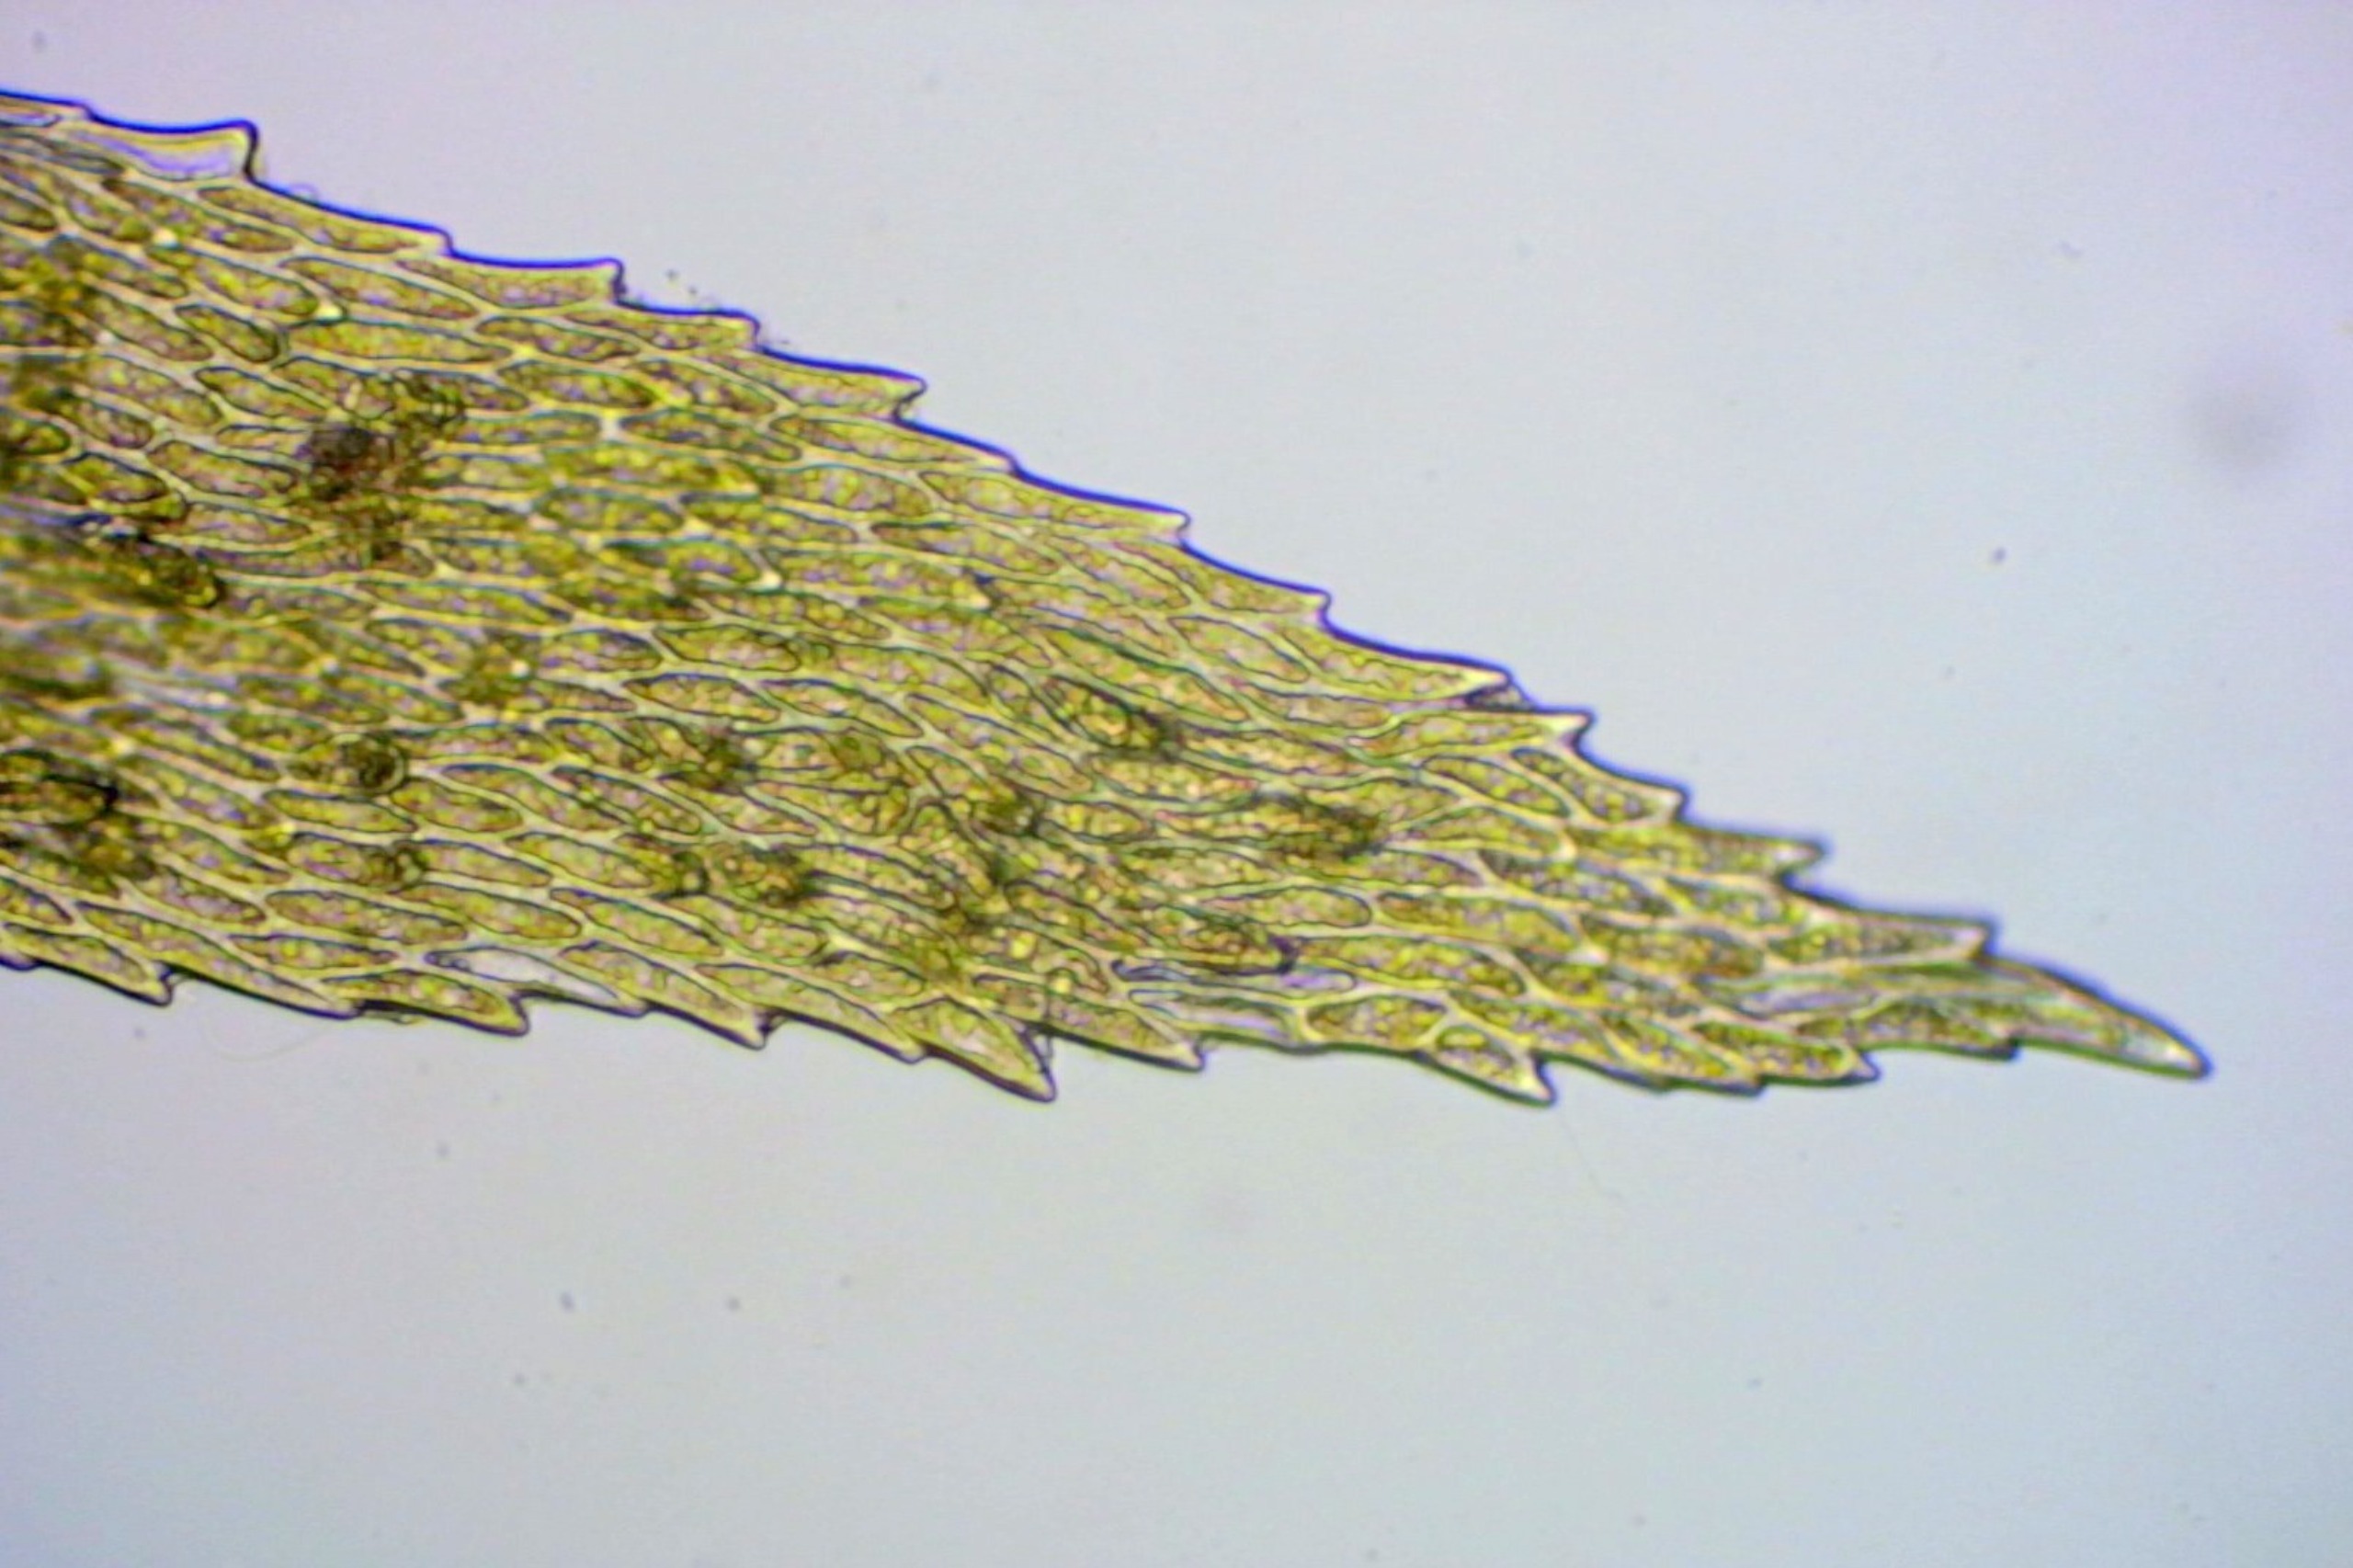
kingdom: Plantae
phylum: Bryophyta
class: Bryopsida
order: Hypnales
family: Hylocomiaceae
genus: Hylocomiadelphus
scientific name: Hylocomiadelphus triquetrus
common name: Stor kransemos
